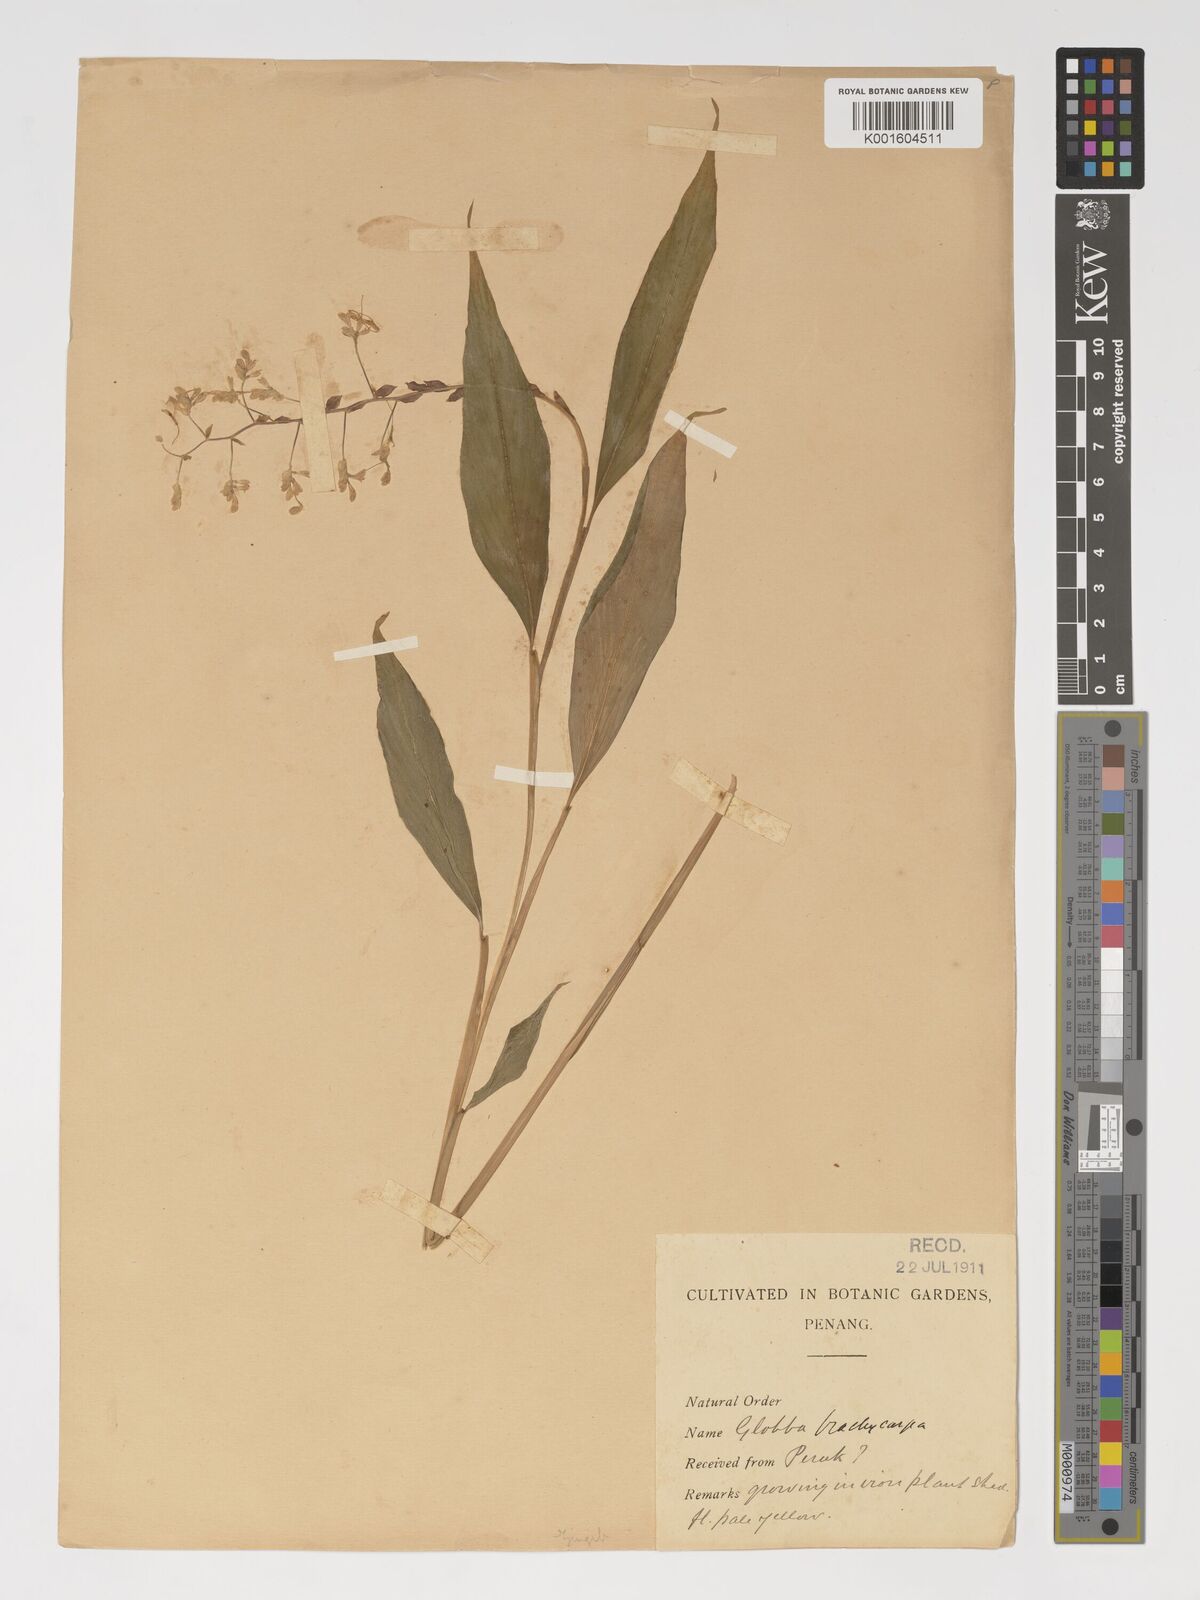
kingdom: Plantae
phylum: Tracheophyta
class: Liliopsida
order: Zingiberales
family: Zingiberaceae
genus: Globba
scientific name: Globba cernua
